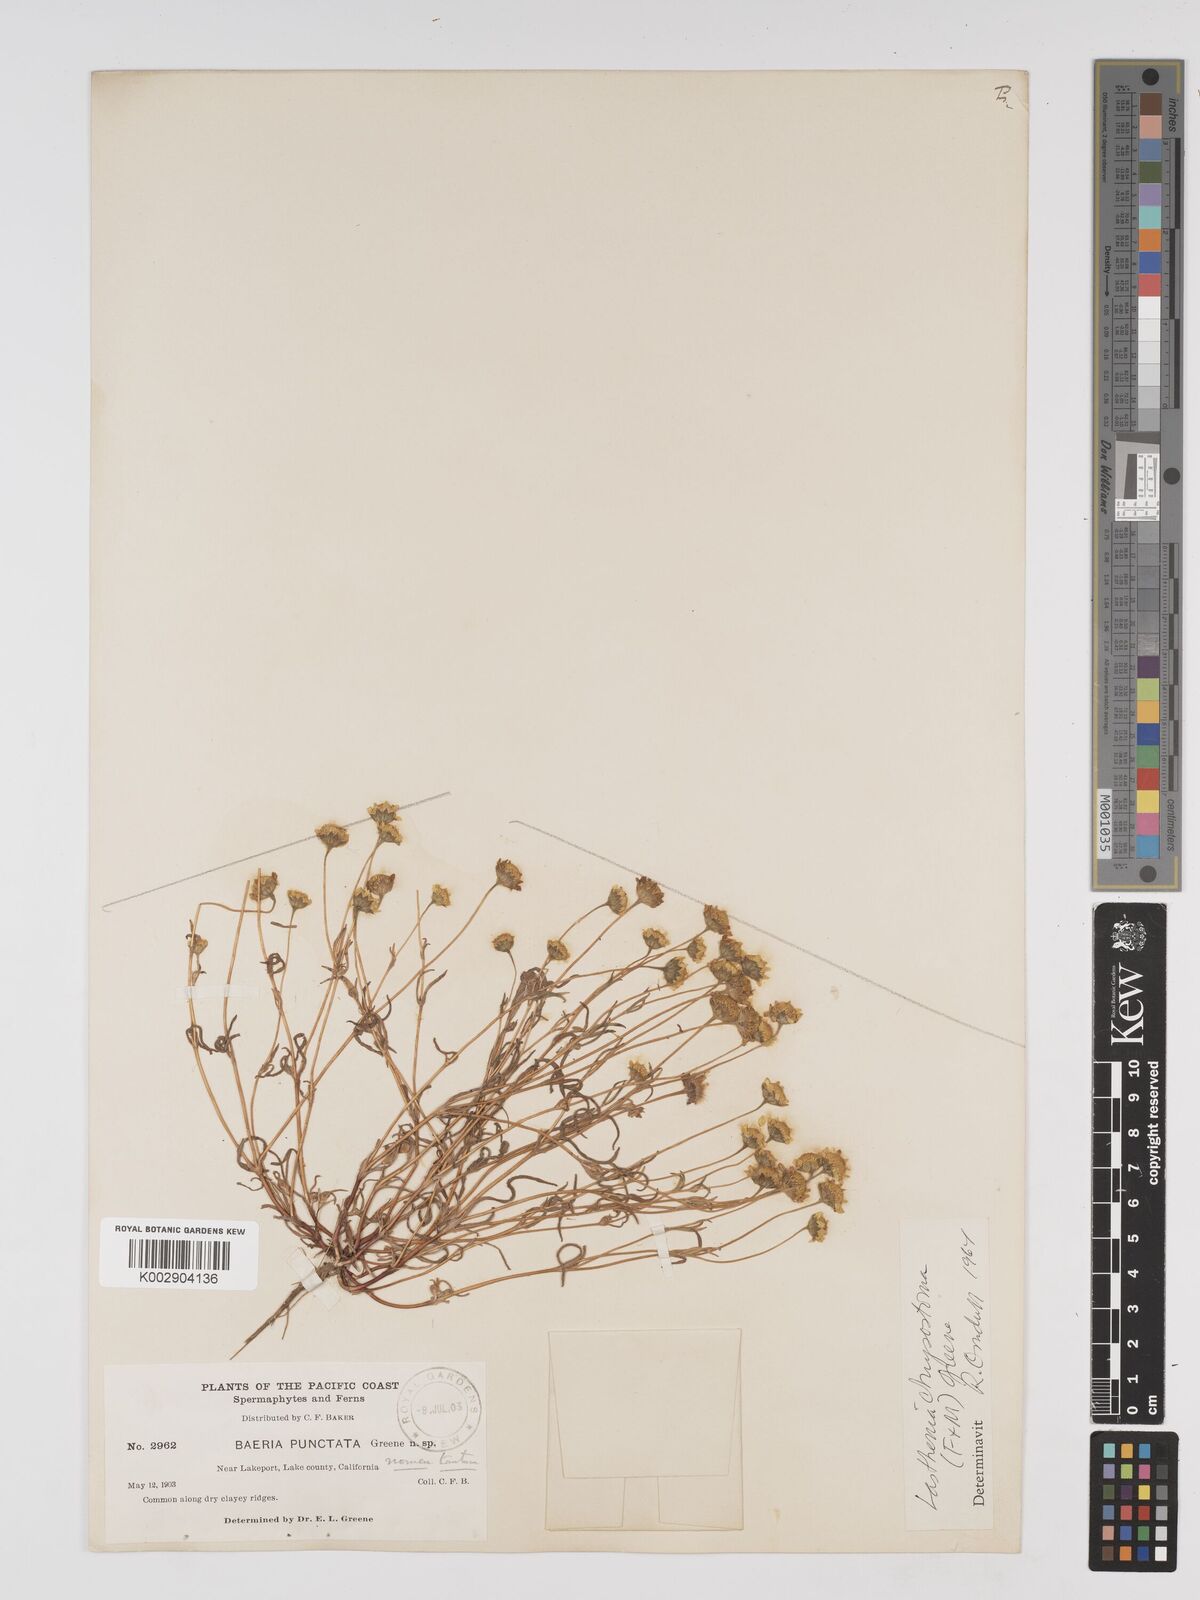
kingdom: Plantae
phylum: Tracheophyta
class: Magnoliopsida
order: Asterales
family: Asteraceae
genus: Lasthenia
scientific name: Lasthenia chrysantha
